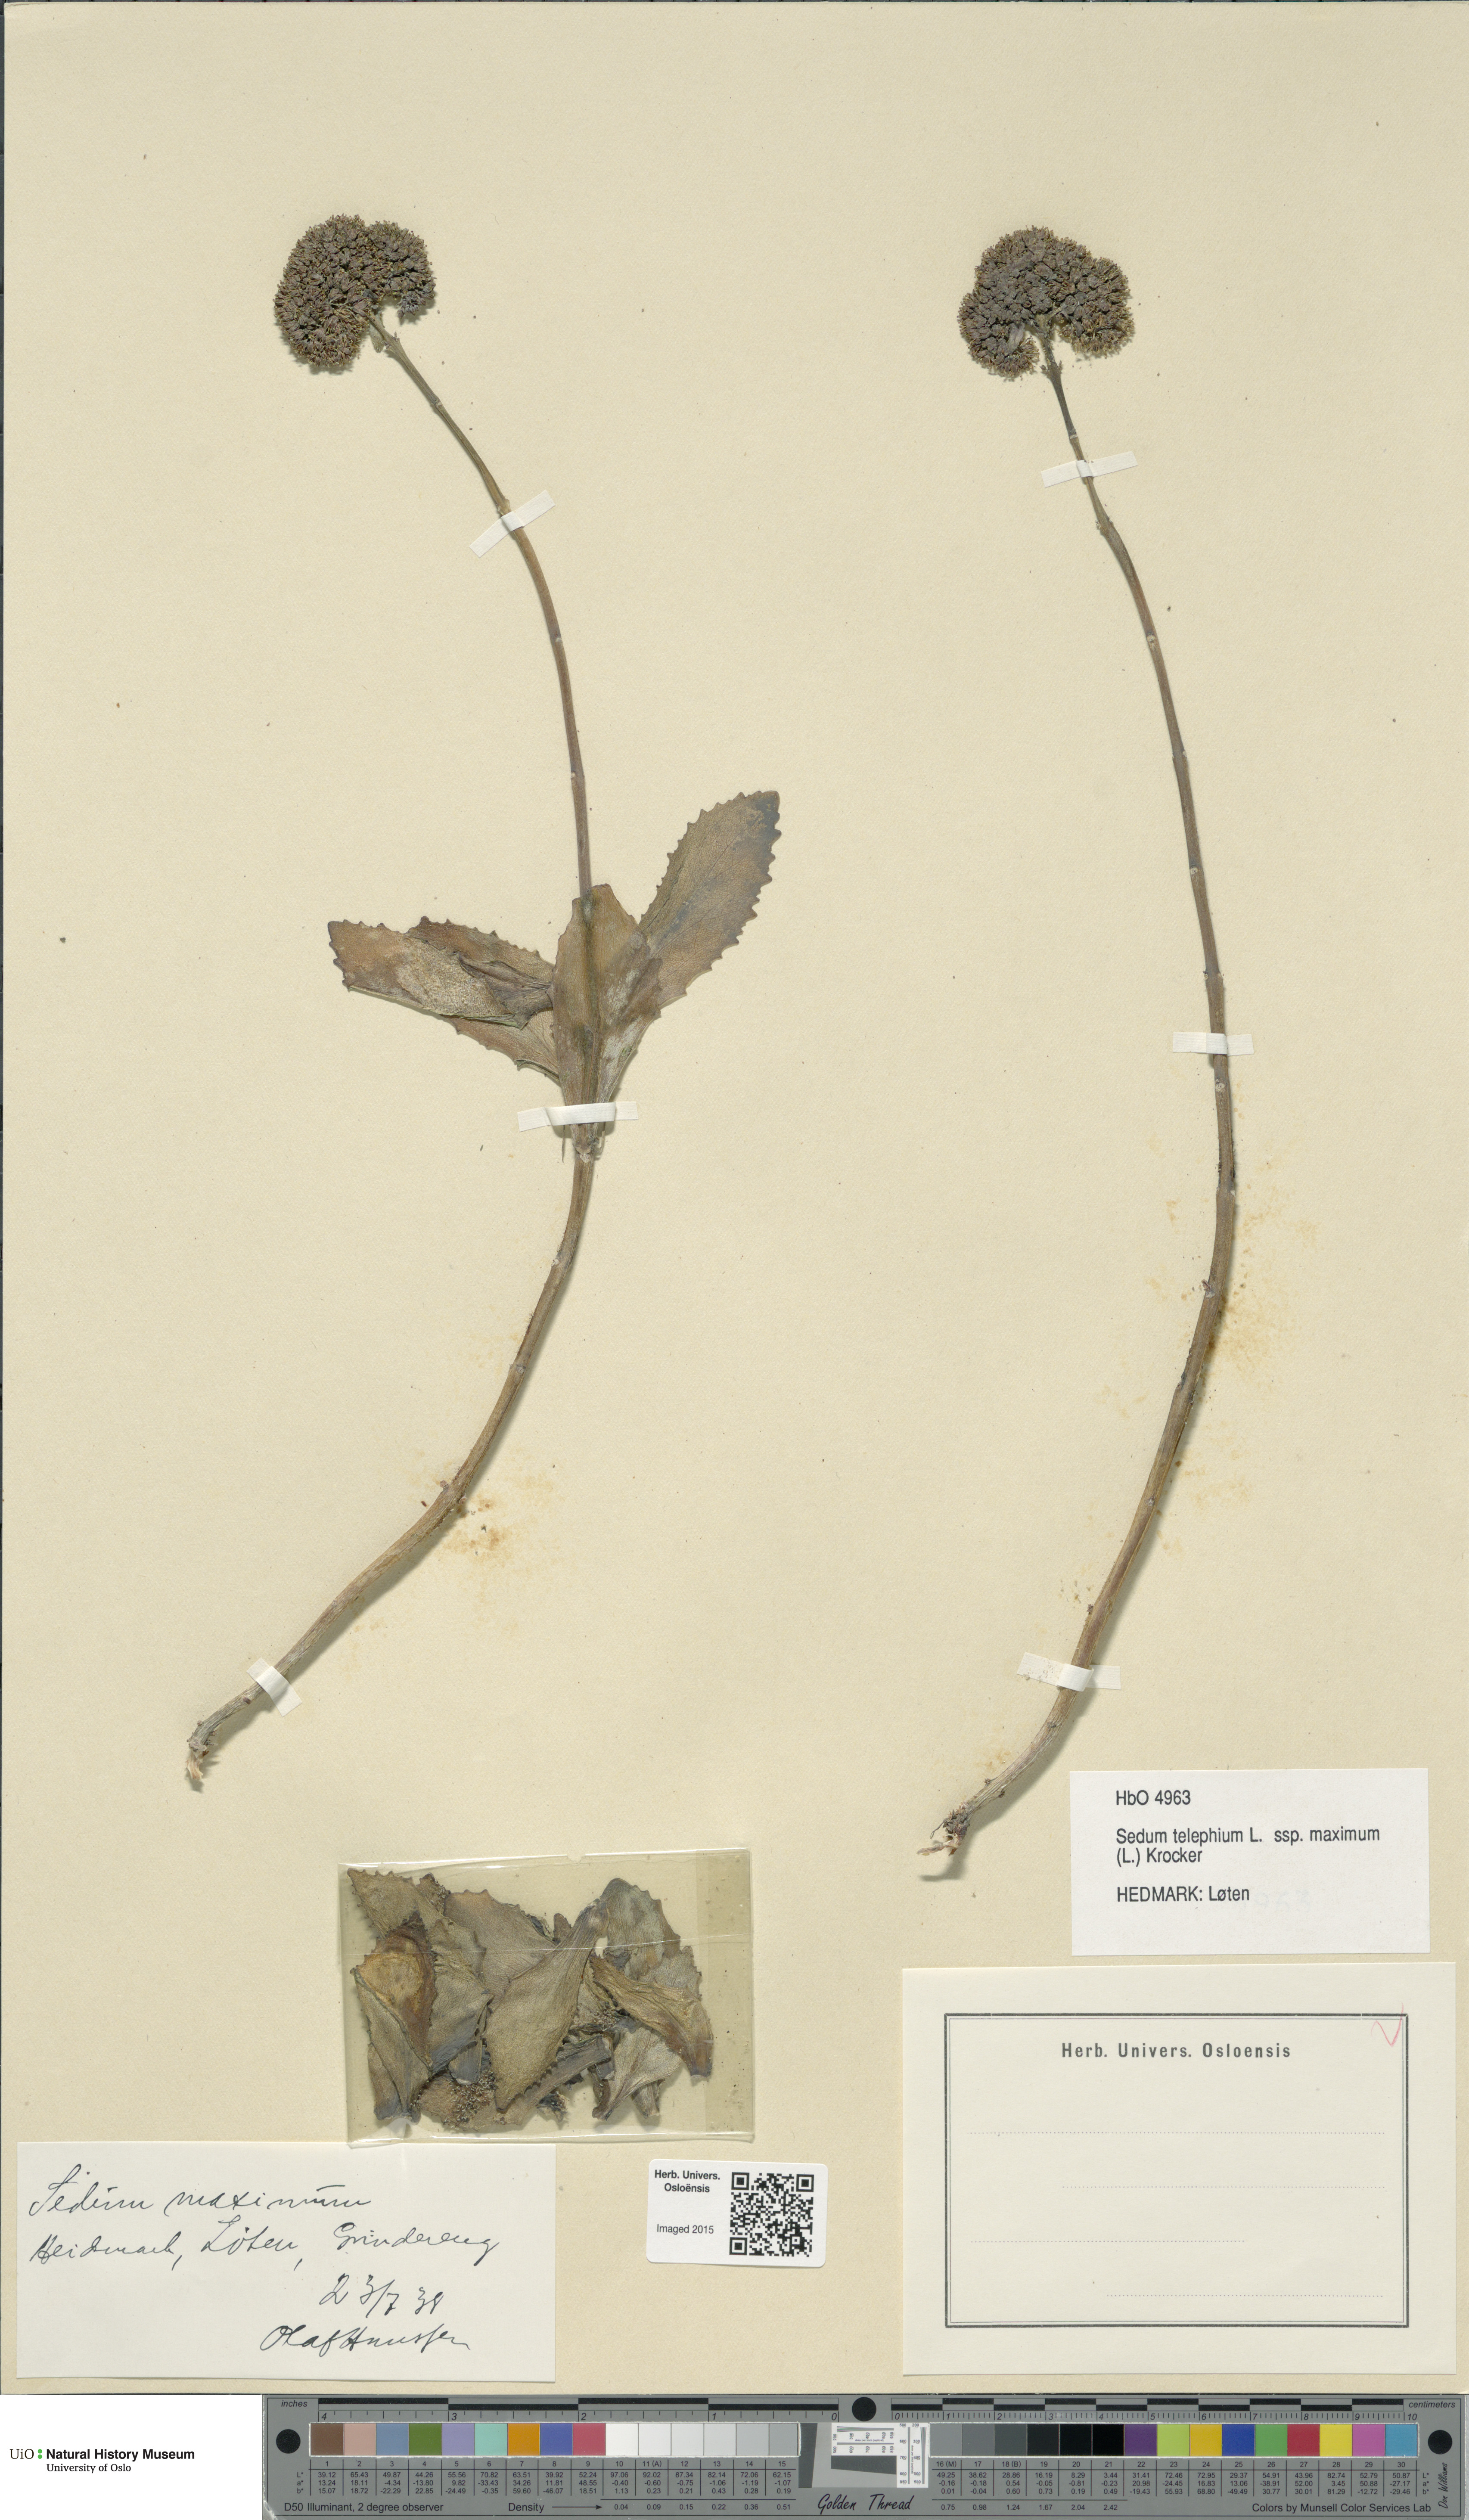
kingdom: Plantae
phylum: Tracheophyta
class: Magnoliopsida
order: Saxifragales
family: Crassulaceae
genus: Hylotelephium
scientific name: Hylotelephium maximum
